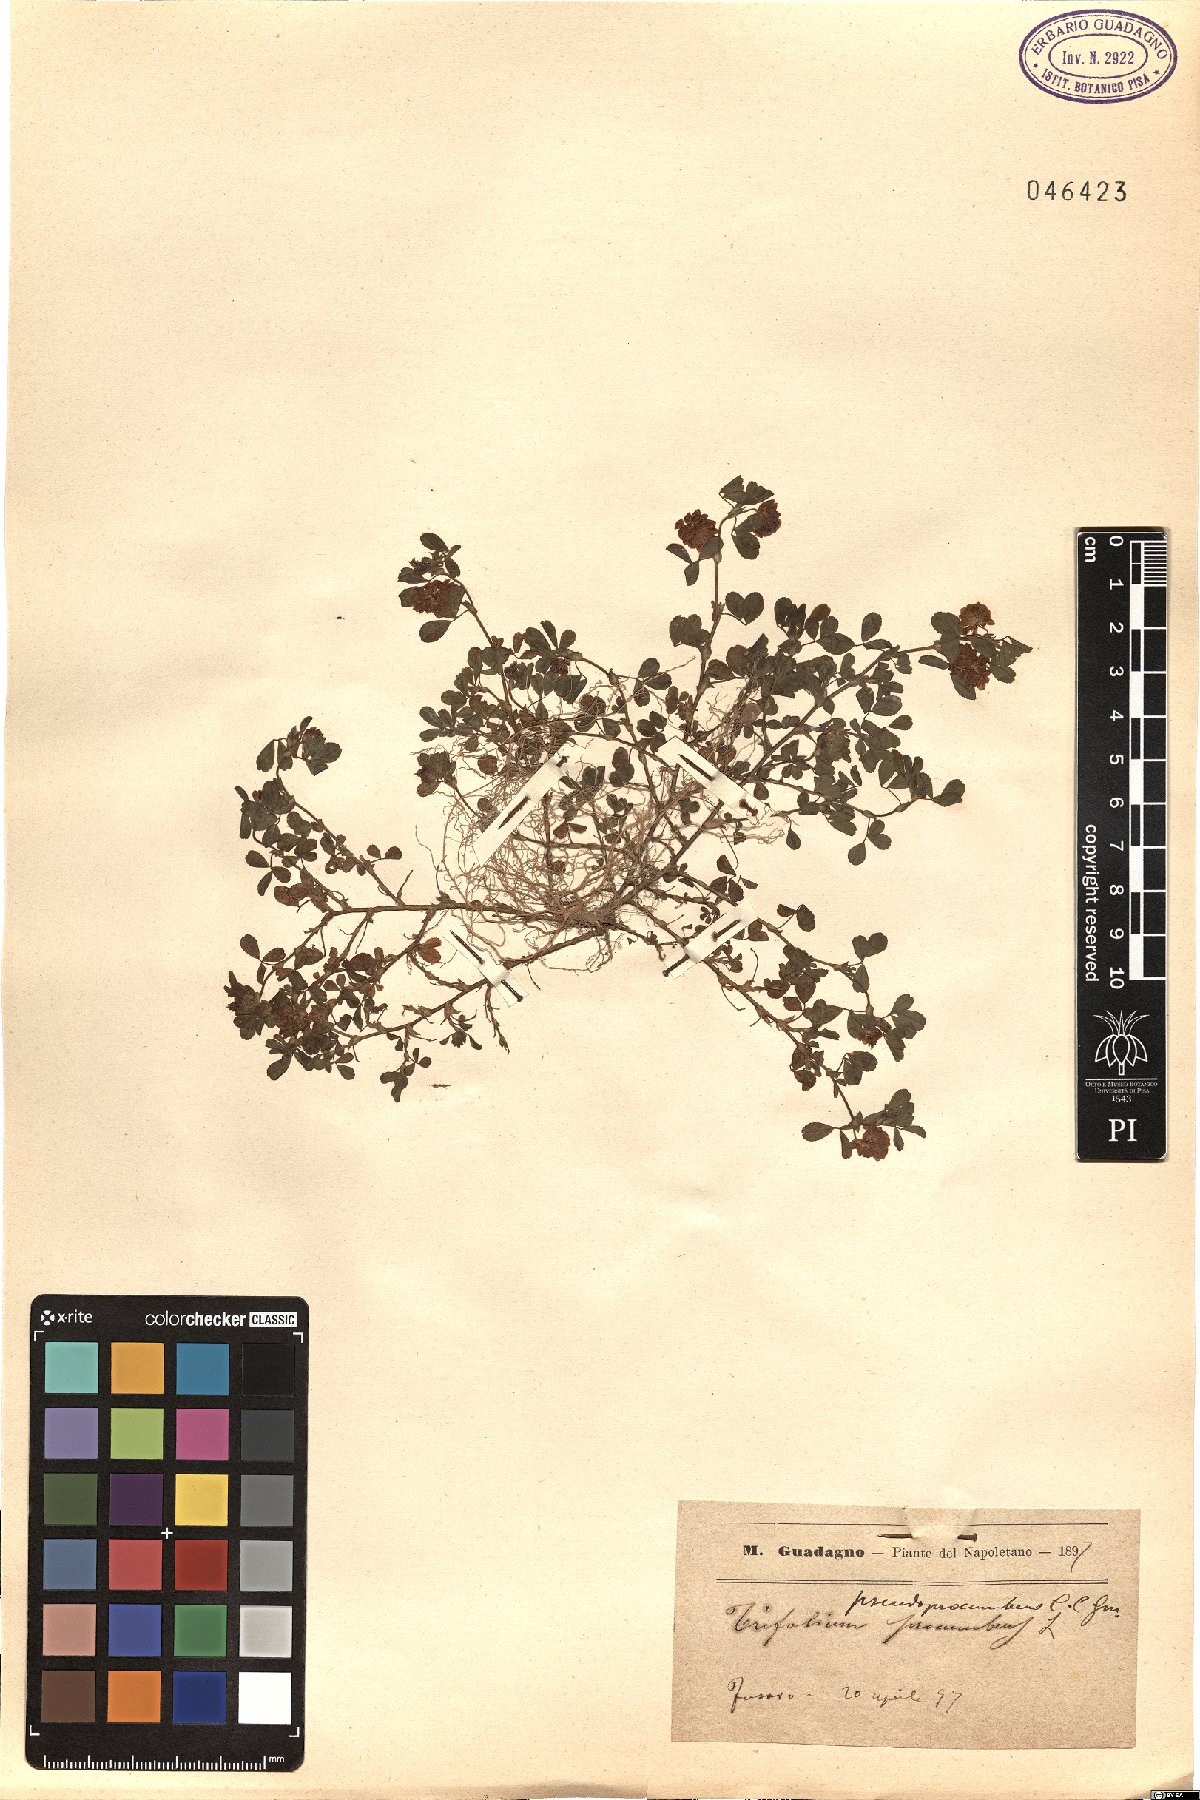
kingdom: Plantae
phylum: Tracheophyta
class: Magnoliopsida
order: Fabales
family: Fabaceae
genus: Trifolium
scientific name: Trifolium campestre
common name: Field clover
